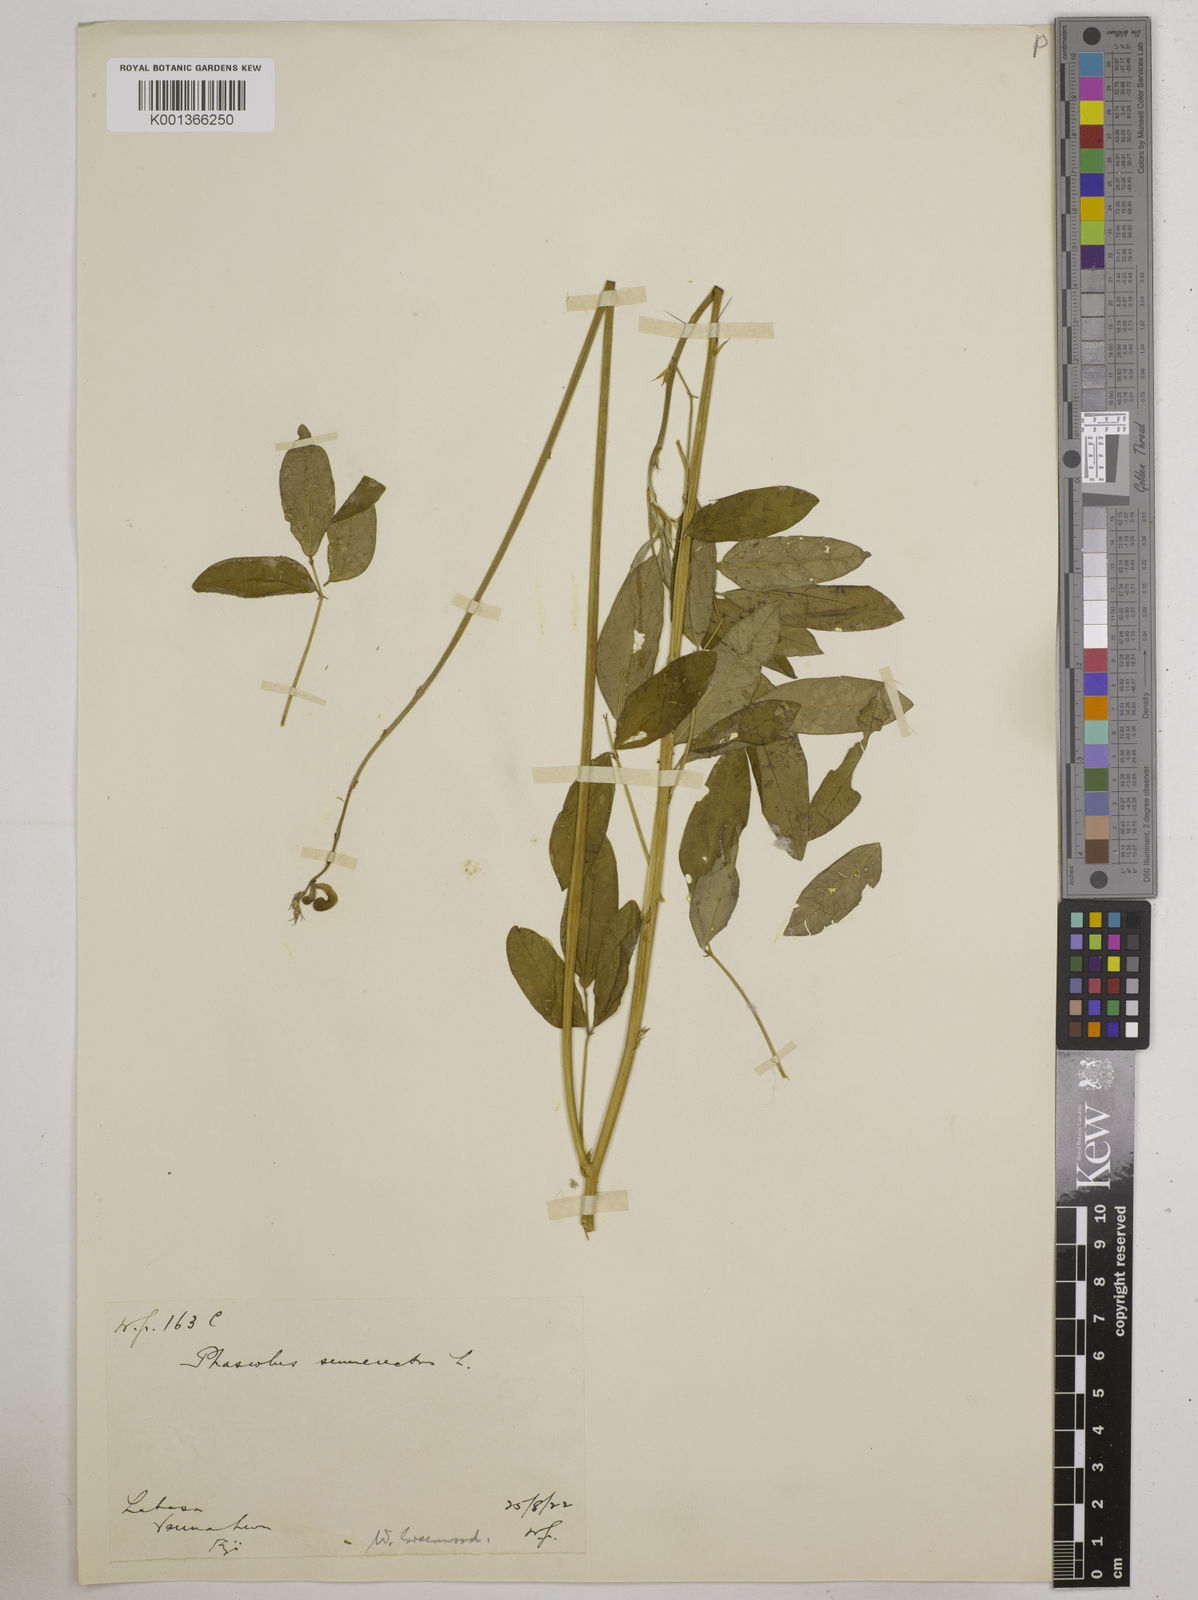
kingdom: Plantae
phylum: Tracheophyta
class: Magnoliopsida
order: Fabales
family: Fabaceae
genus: Macroptilium
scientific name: Macroptilium lathyroides
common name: Wild bushbean
